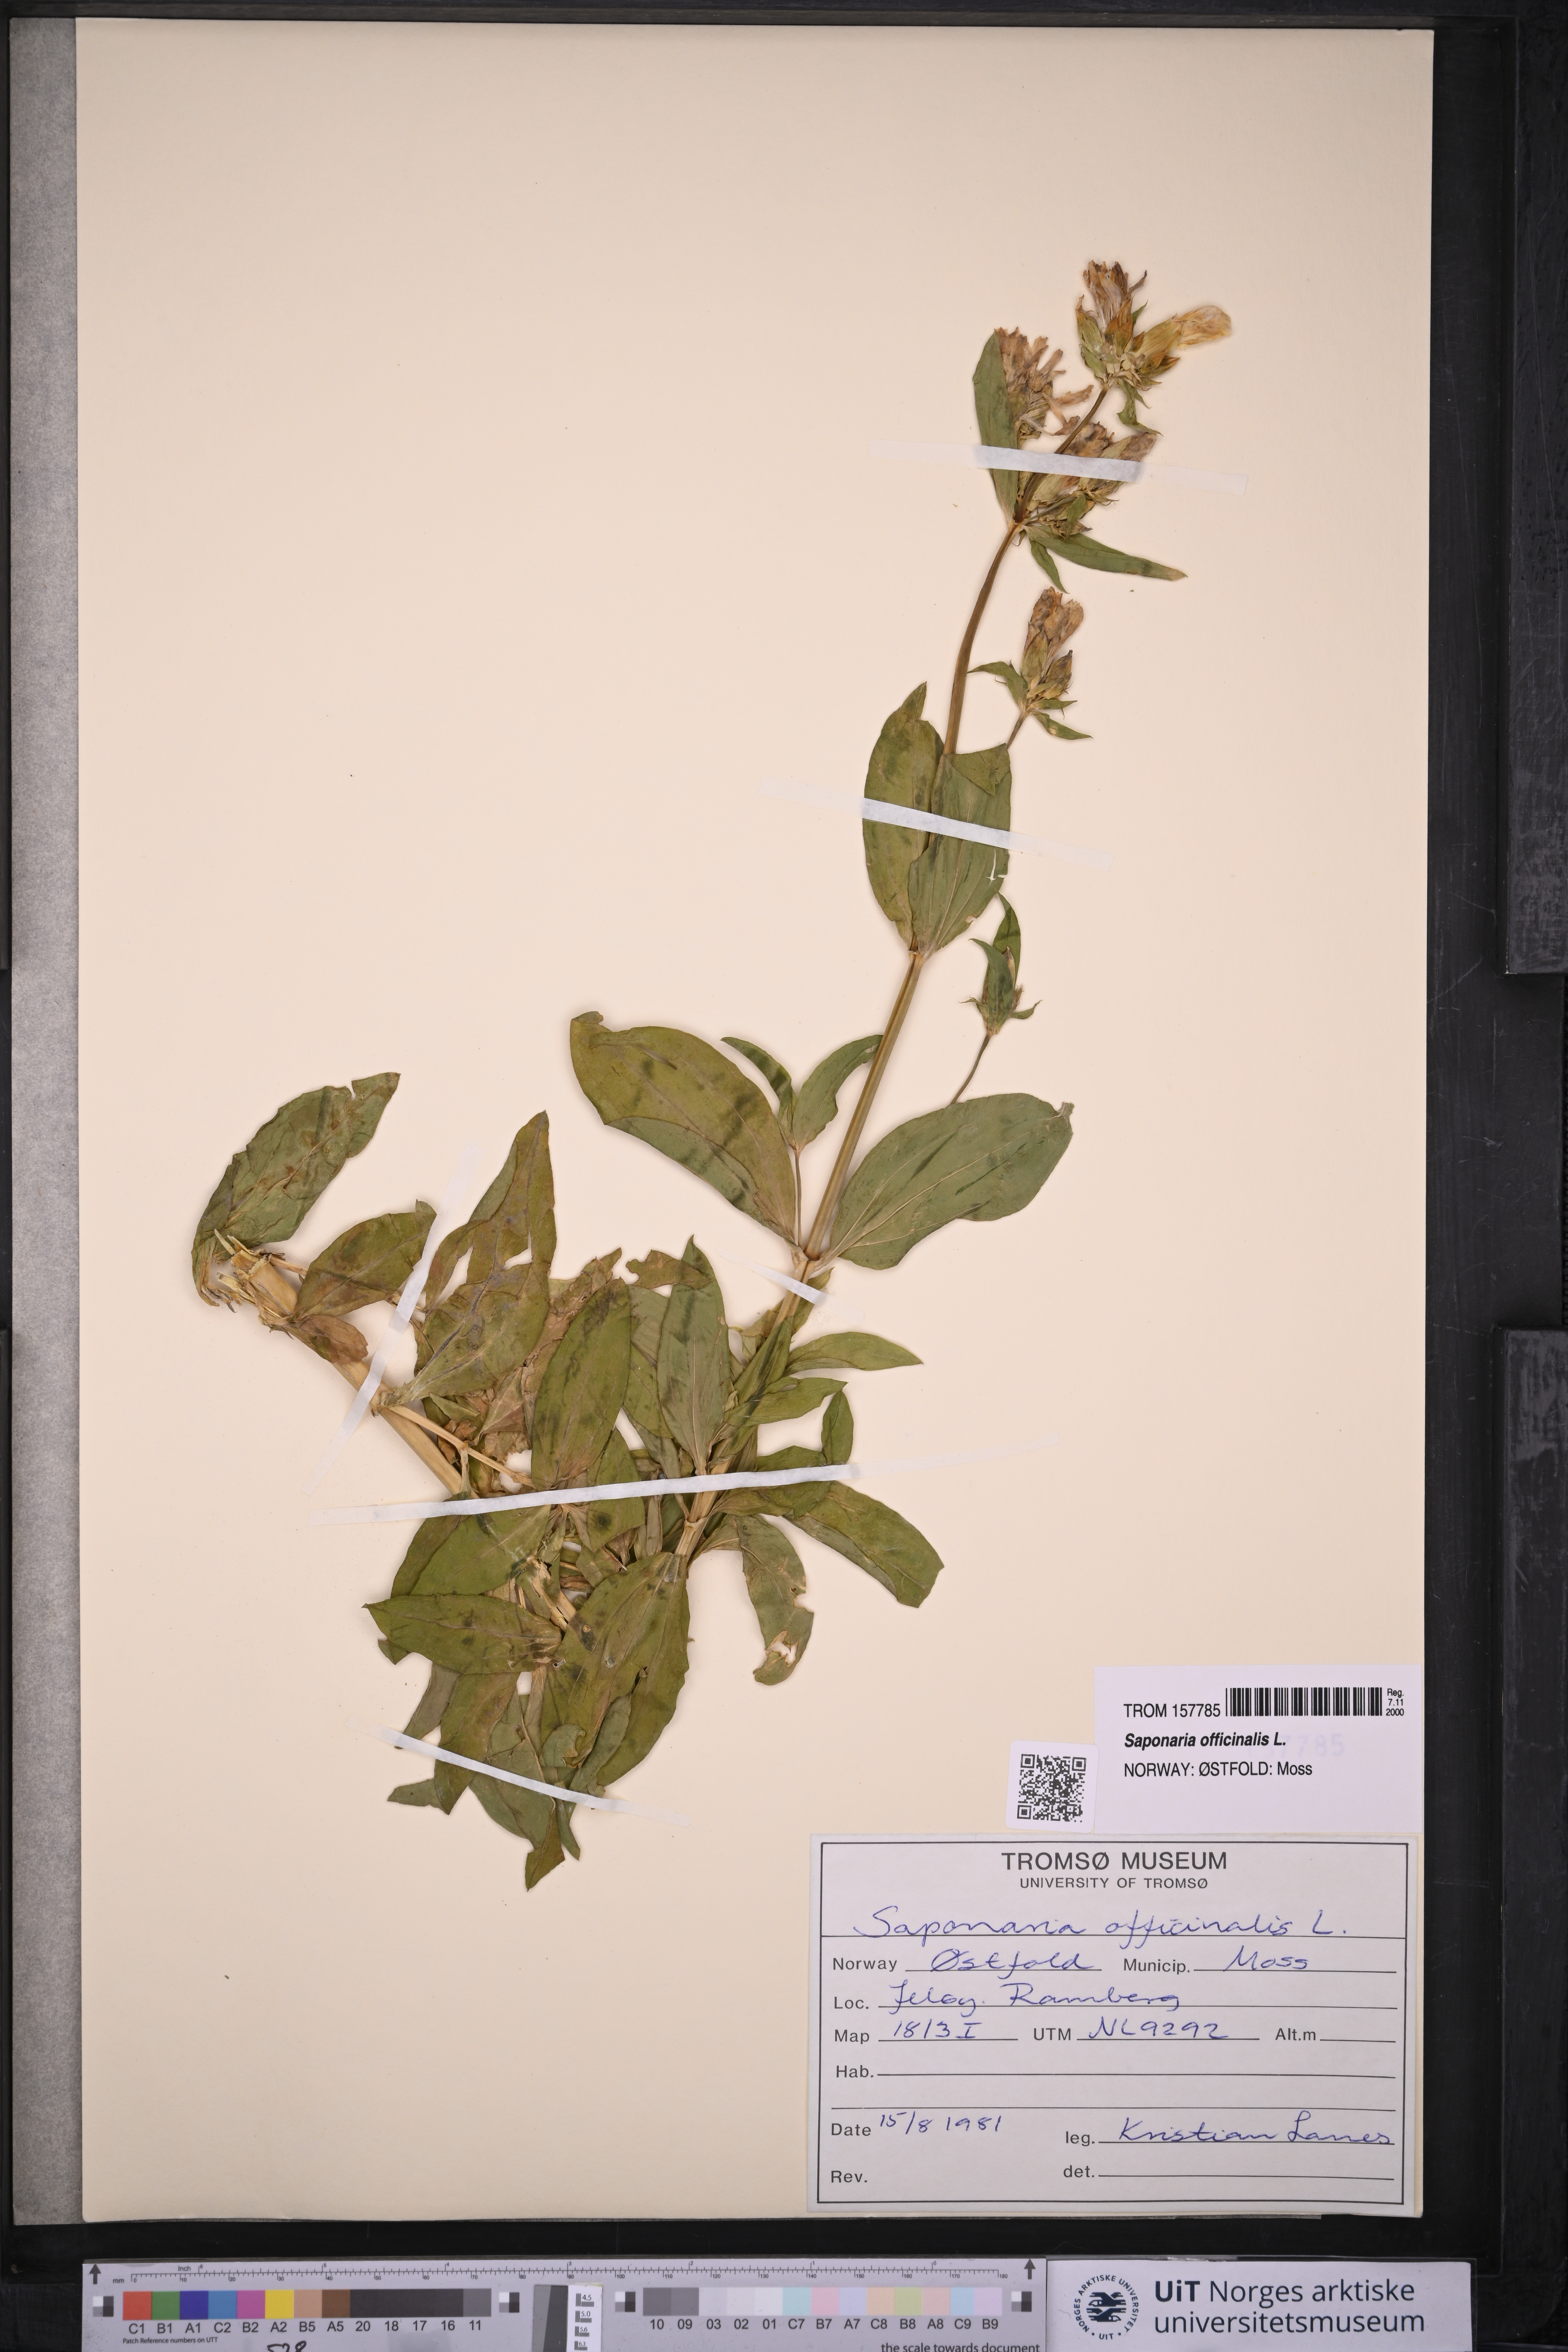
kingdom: Plantae
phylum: Tracheophyta
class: Magnoliopsida
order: Caryophyllales
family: Caryophyllaceae
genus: Saponaria
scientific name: Saponaria officinalis
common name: Soapwort
